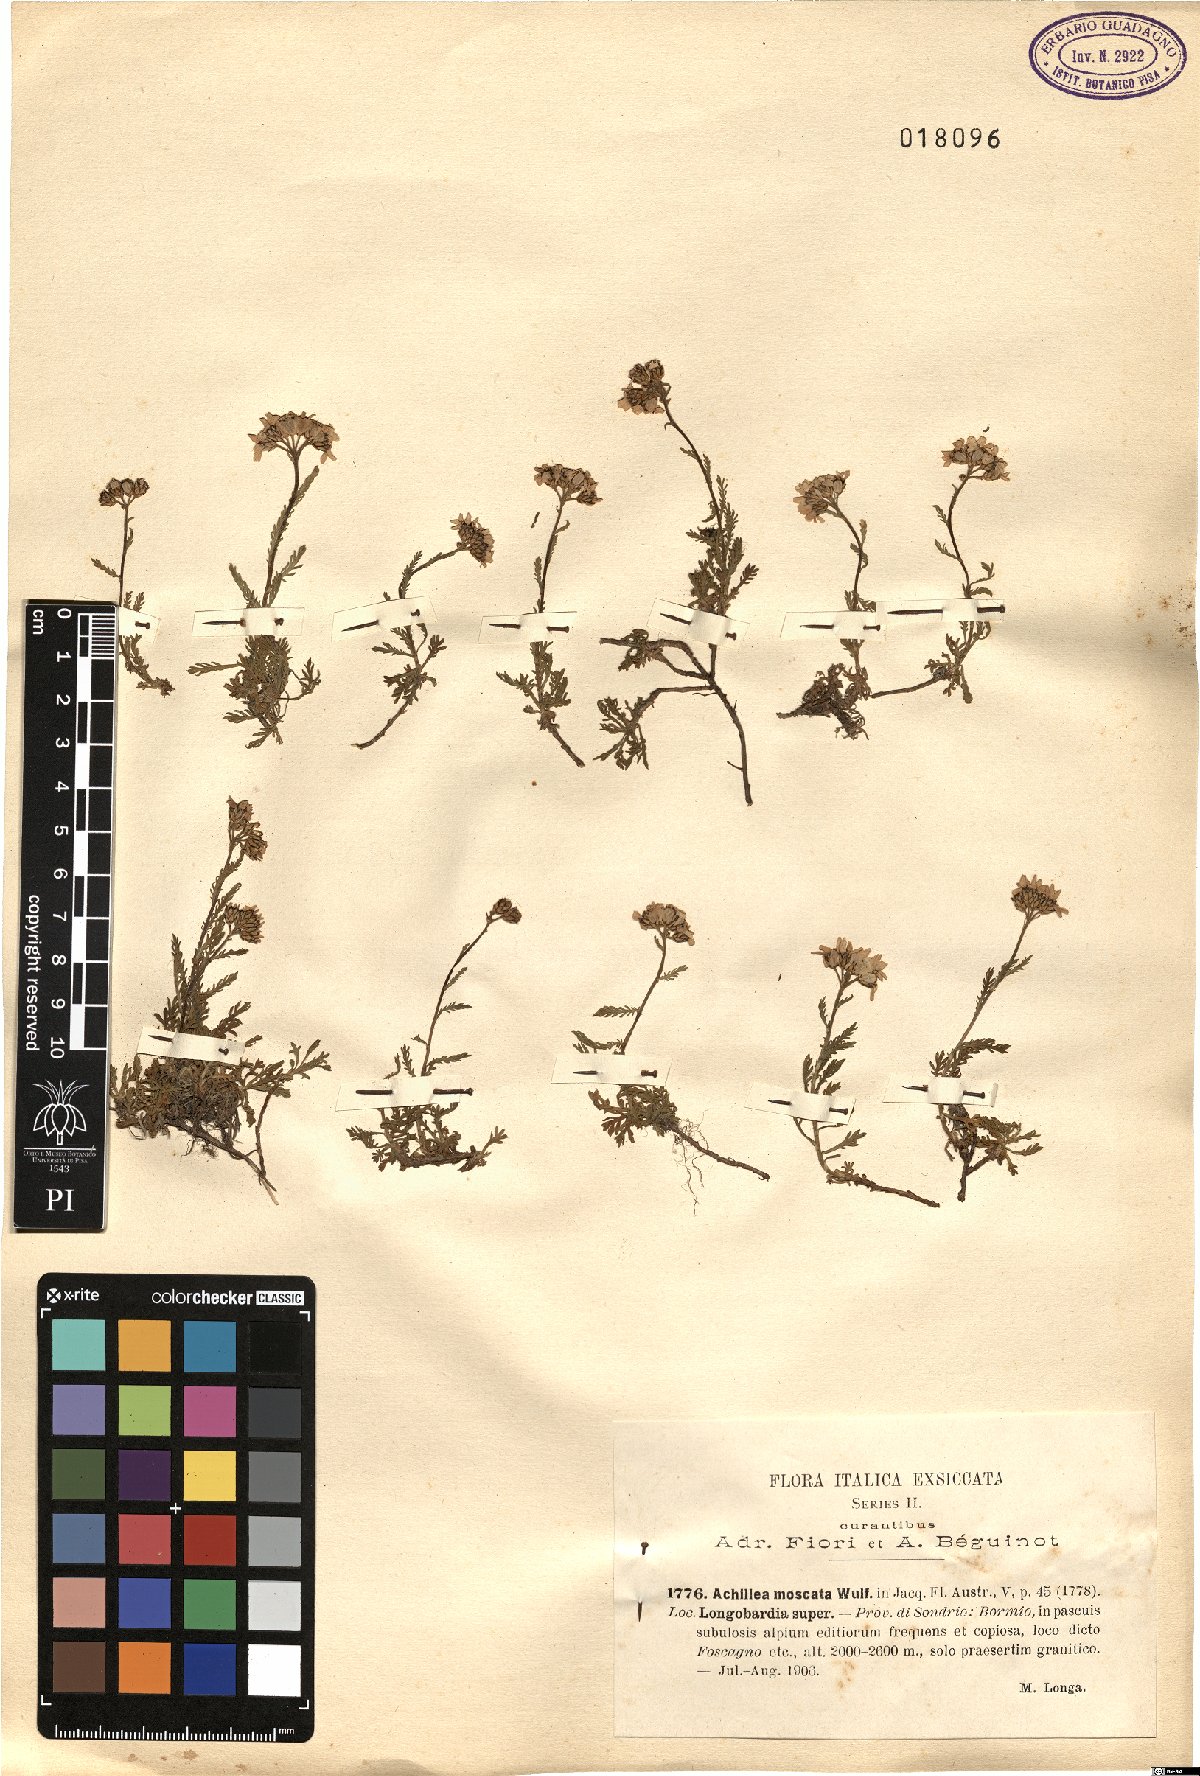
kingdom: Plantae
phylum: Tracheophyta
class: Magnoliopsida
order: Asterales
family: Asteraceae
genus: Achillea
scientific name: Achillea erba-rotta
